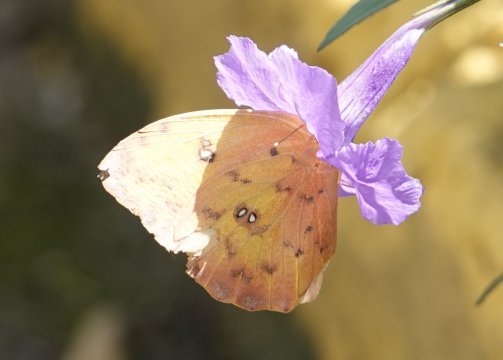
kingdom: Animalia
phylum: Arthropoda
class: Insecta
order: Lepidoptera
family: Pieridae
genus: Phoebis
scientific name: Phoebis philea
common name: Orange-barred Sulphur
